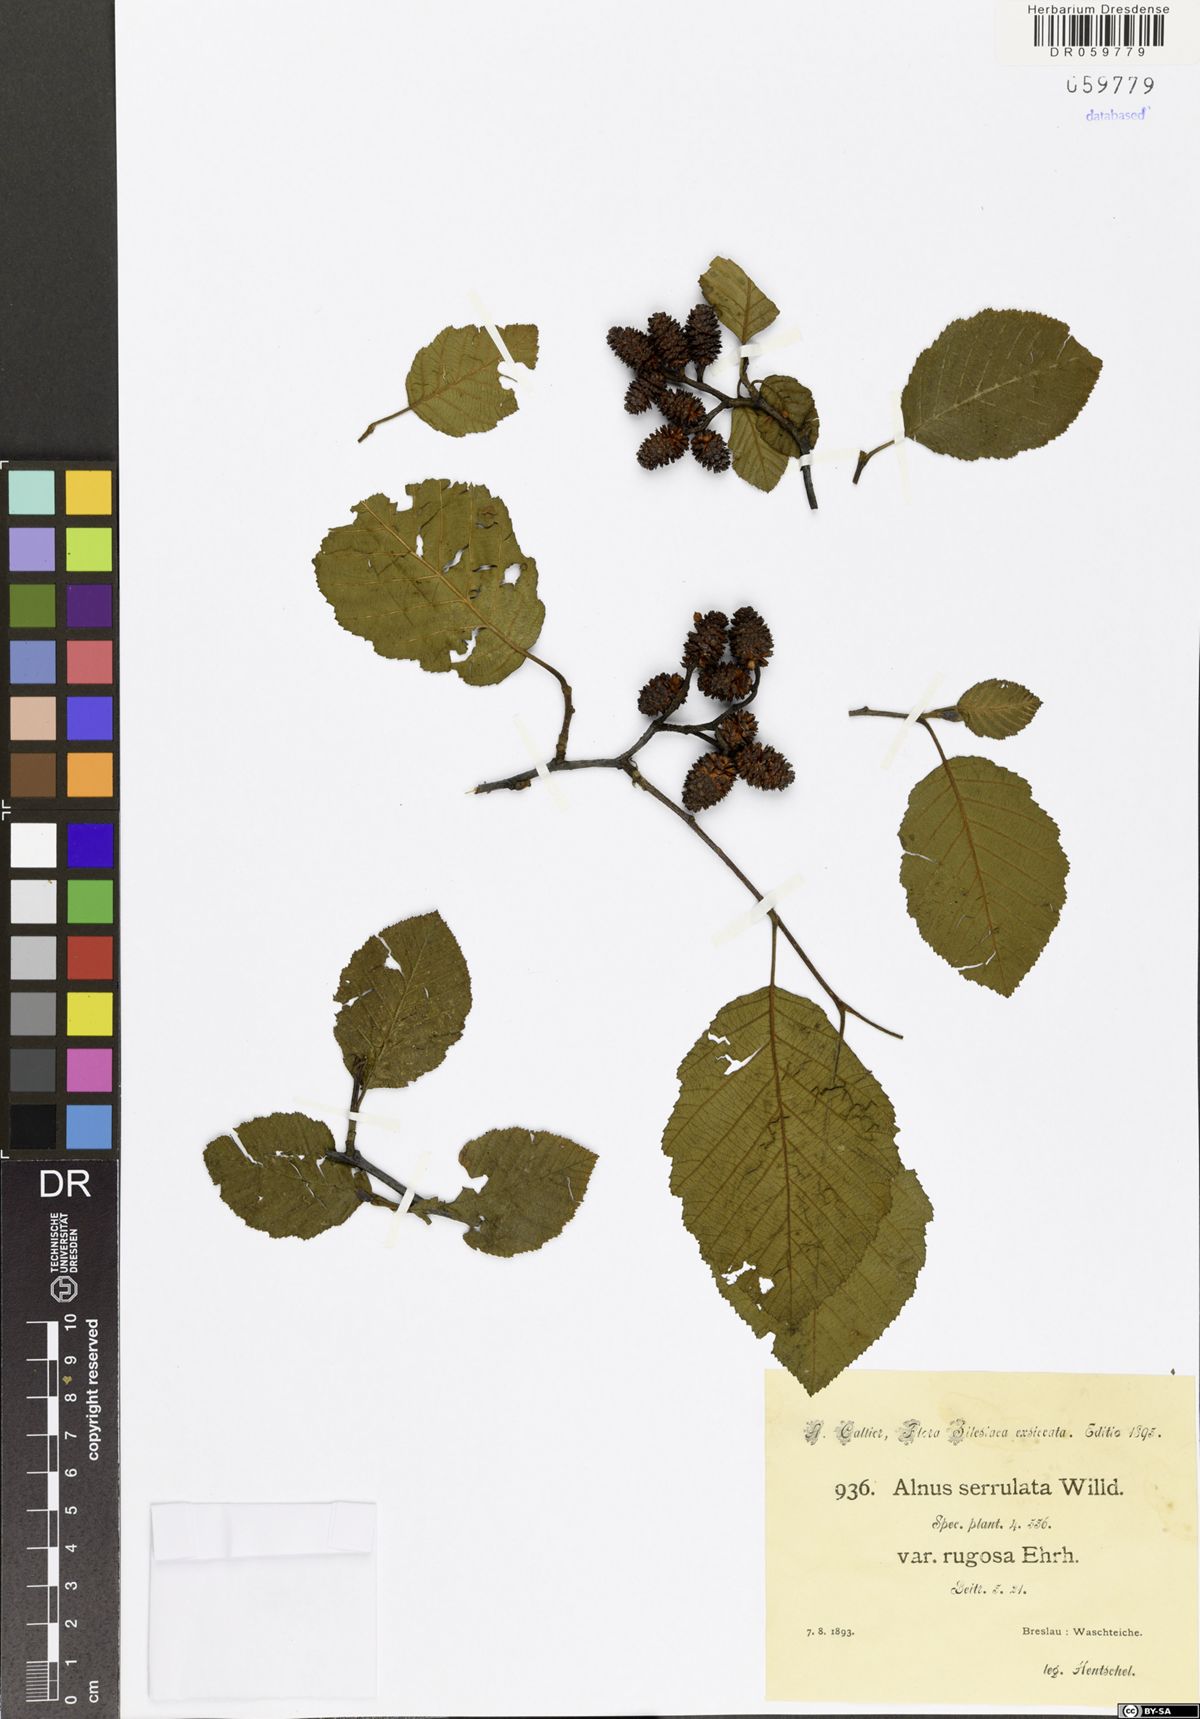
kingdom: Plantae
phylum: Tracheophyta
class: Magnoliopsida
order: Fagales
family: Betulaceae
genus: Alnus
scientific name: Alnus serrulata
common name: Hazel alder
